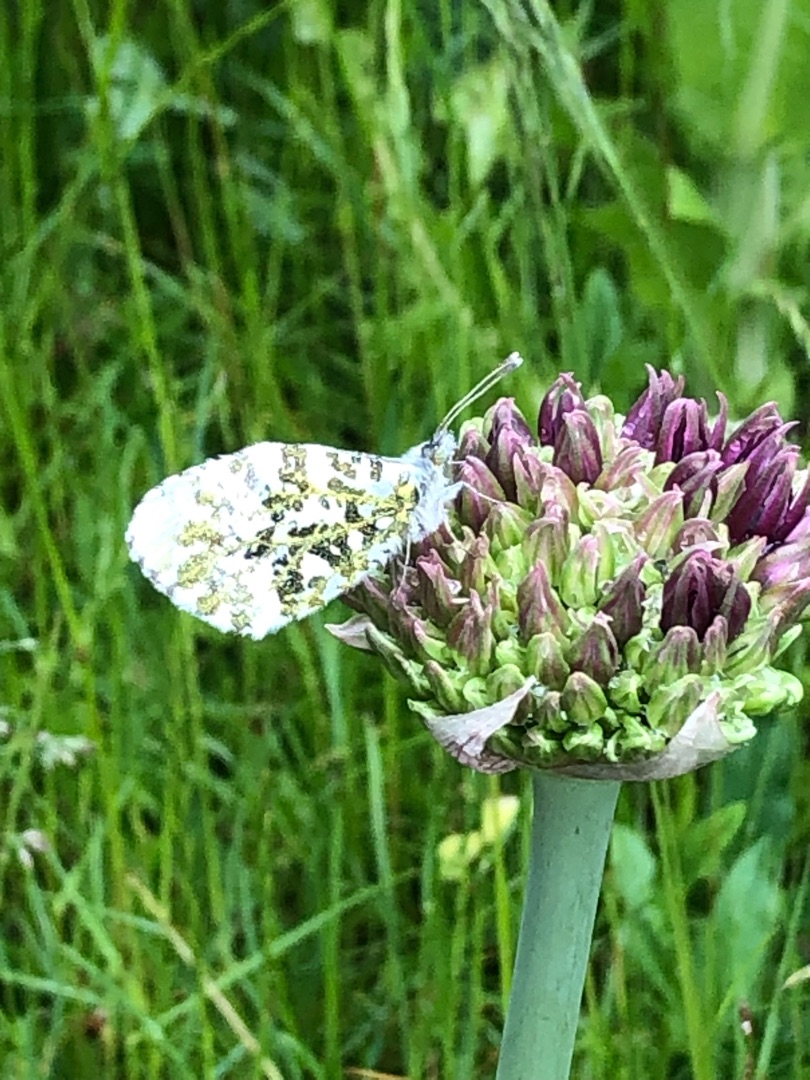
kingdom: Animalia
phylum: Arthropoda
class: Insecta
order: Lepidoptera
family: Pieridae
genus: Anthocharis
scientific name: Anthocharis cardamines
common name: Aurora
